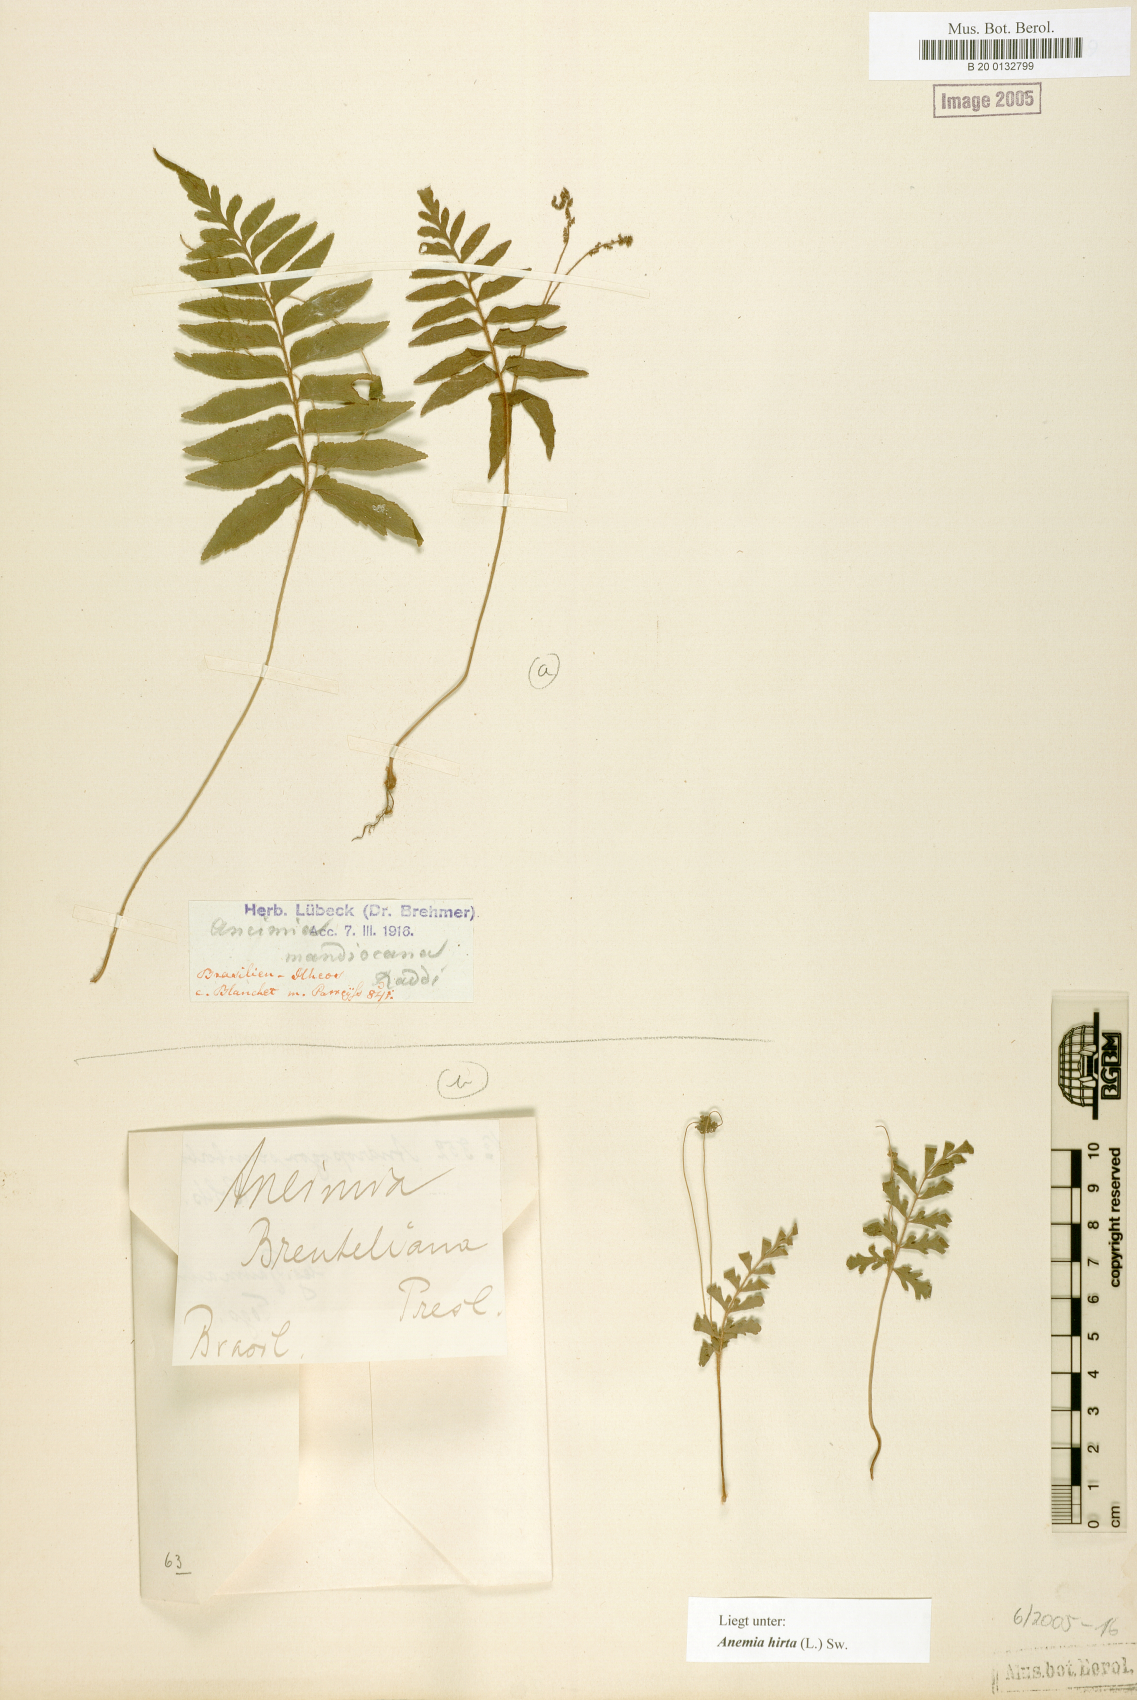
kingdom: Plantae
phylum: Tracheophyta
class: Polypodiopsida
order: Schizaeales
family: Anemiaceae
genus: Anemia
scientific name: Anemia hirta
